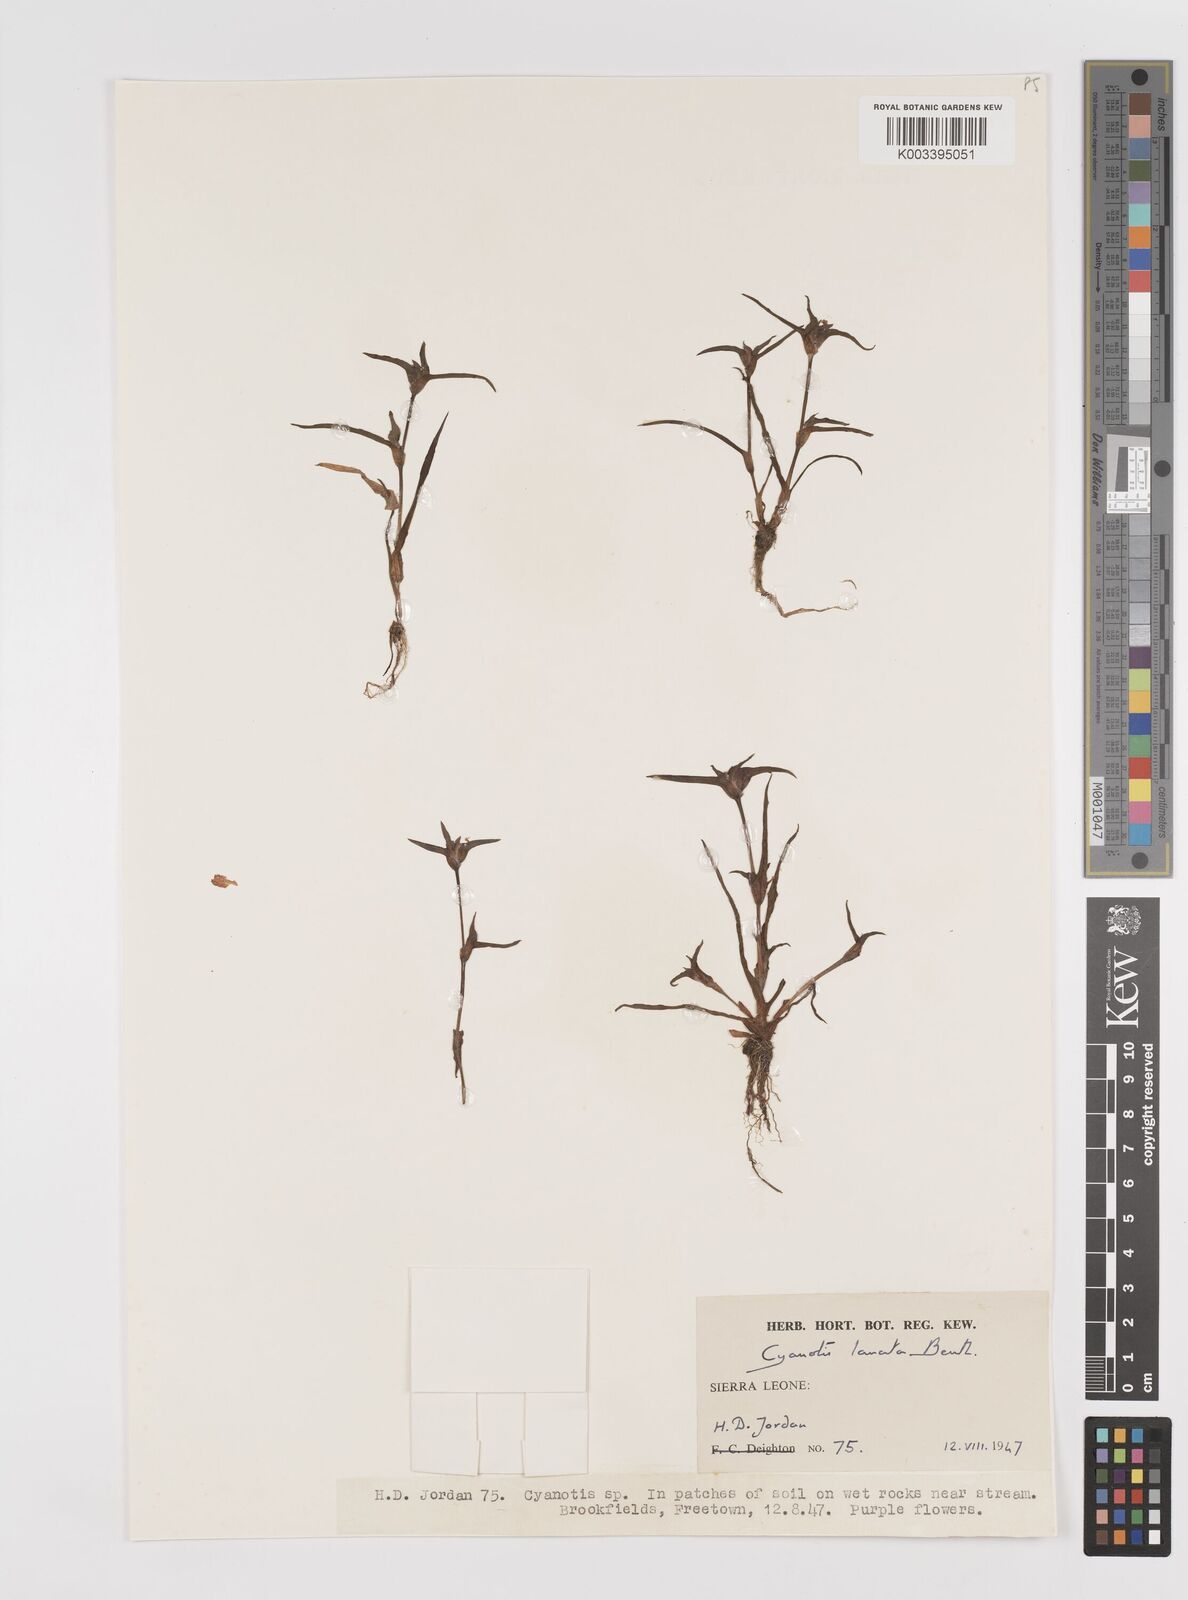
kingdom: Plantae
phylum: Tracheophyta
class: Liliopsida
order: Commelinales
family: Commelinaceae
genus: Cyanotis
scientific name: Cyanotis lanata
